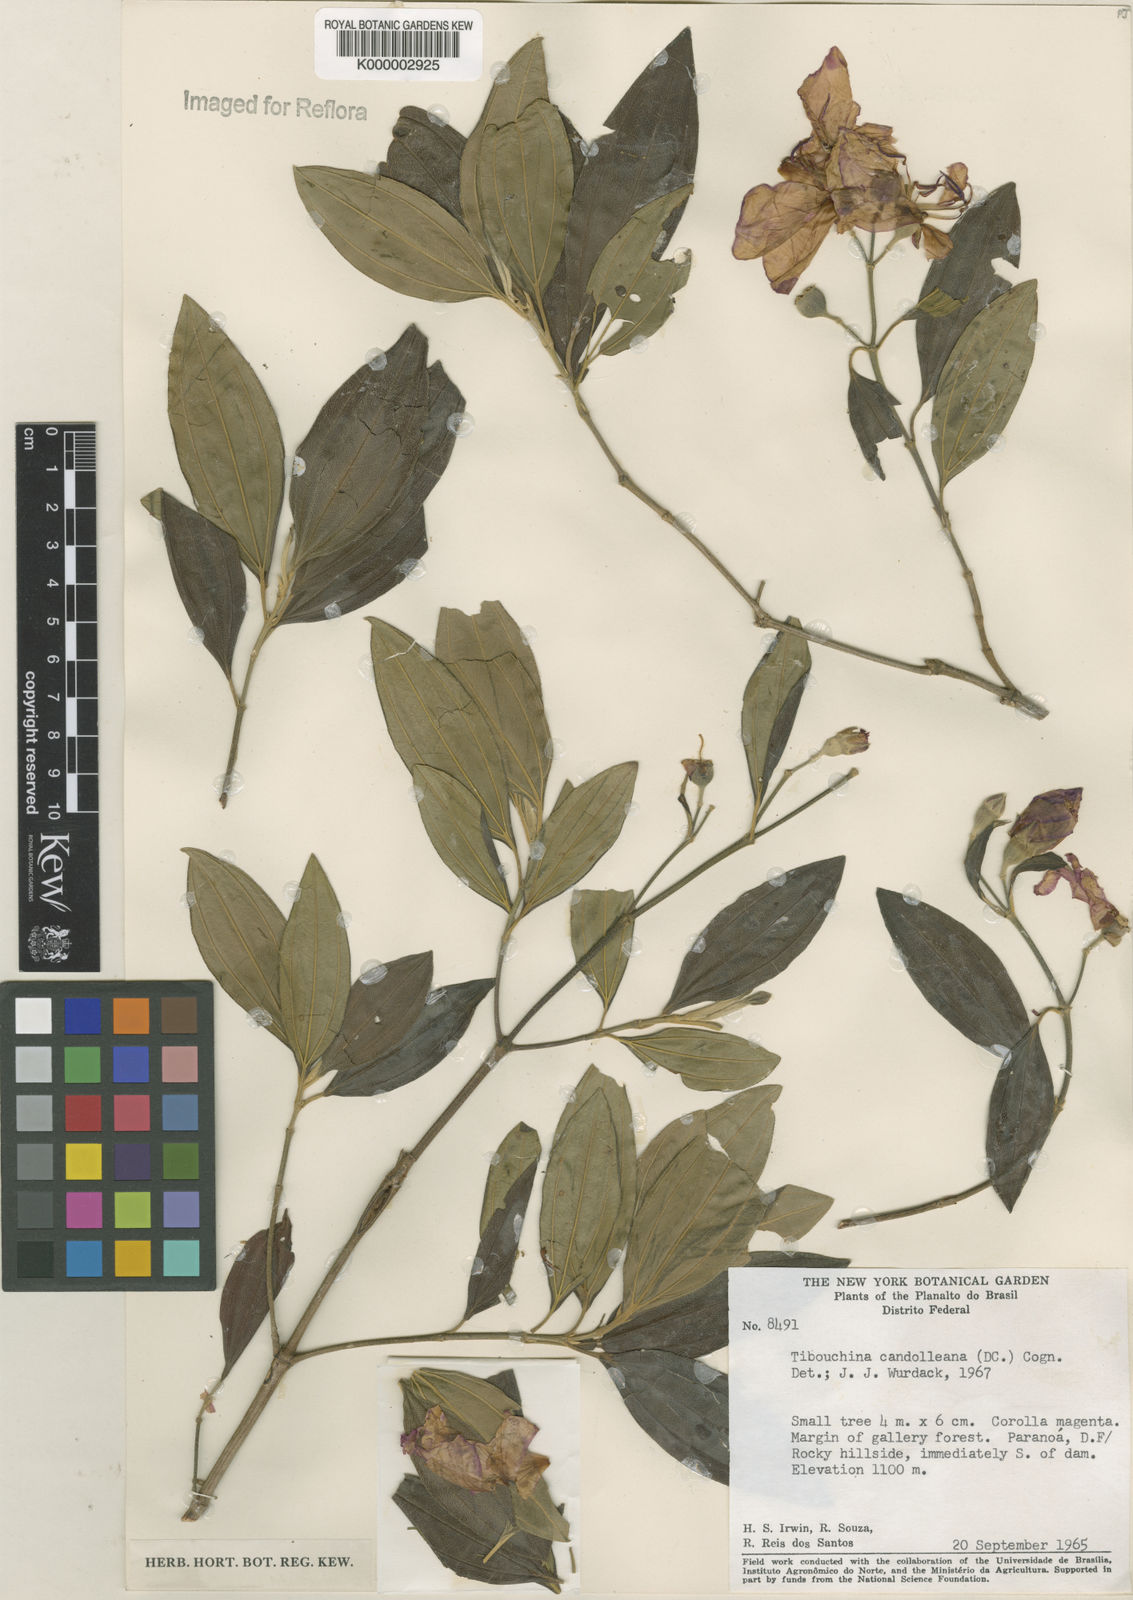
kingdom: Plantae
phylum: Tracheophyta
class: Magnoliopsida
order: Myrtales
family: Melastomataceae
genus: Pleroma
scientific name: Pleroma candolleanum
